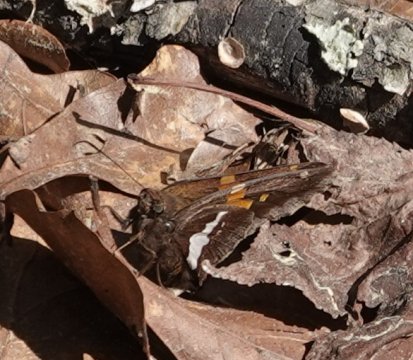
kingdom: Animalia
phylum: Arthropoda
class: Insecta
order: Lepidoptera
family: Hesperiidae
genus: Epargyreus
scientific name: Epargyreus clarus
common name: Silver-spotted Skipper
